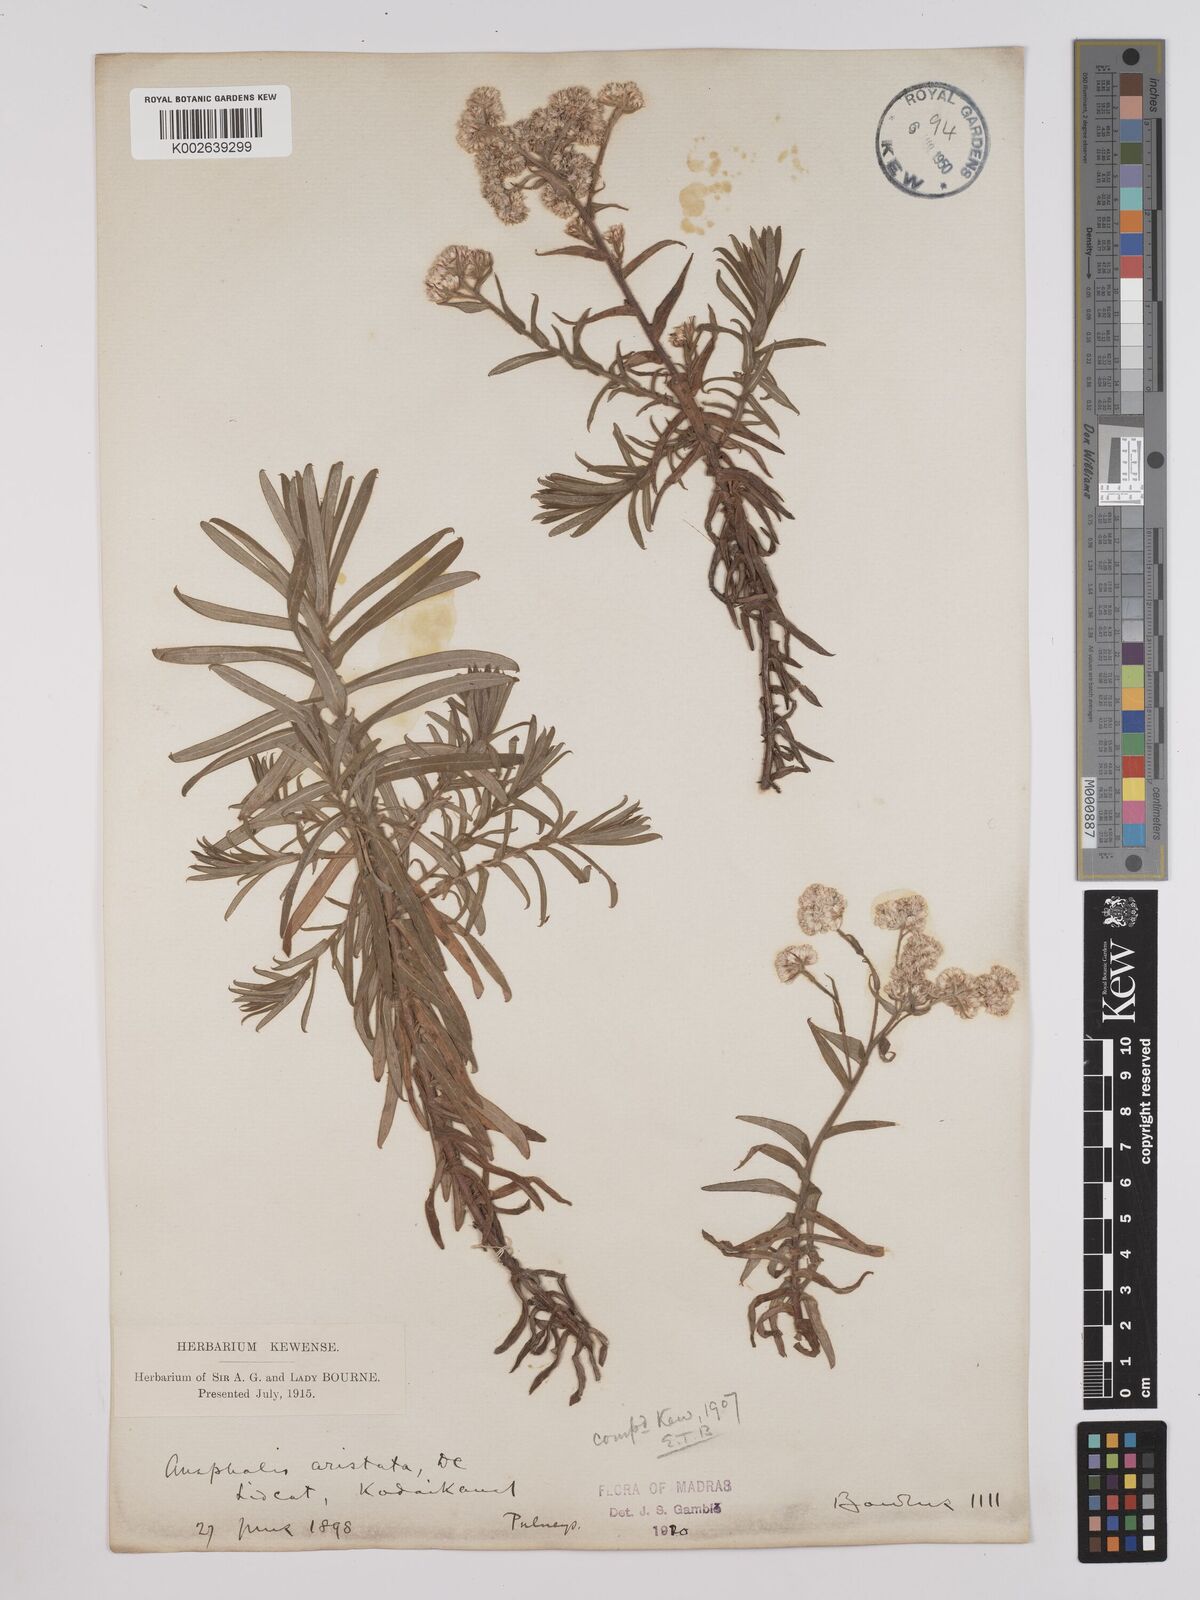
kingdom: Plantae
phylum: Tracheophyta
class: Magnoliopsida
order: Asterales
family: Asteraceae
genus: Anaphalis
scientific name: Anaphalis aristata
